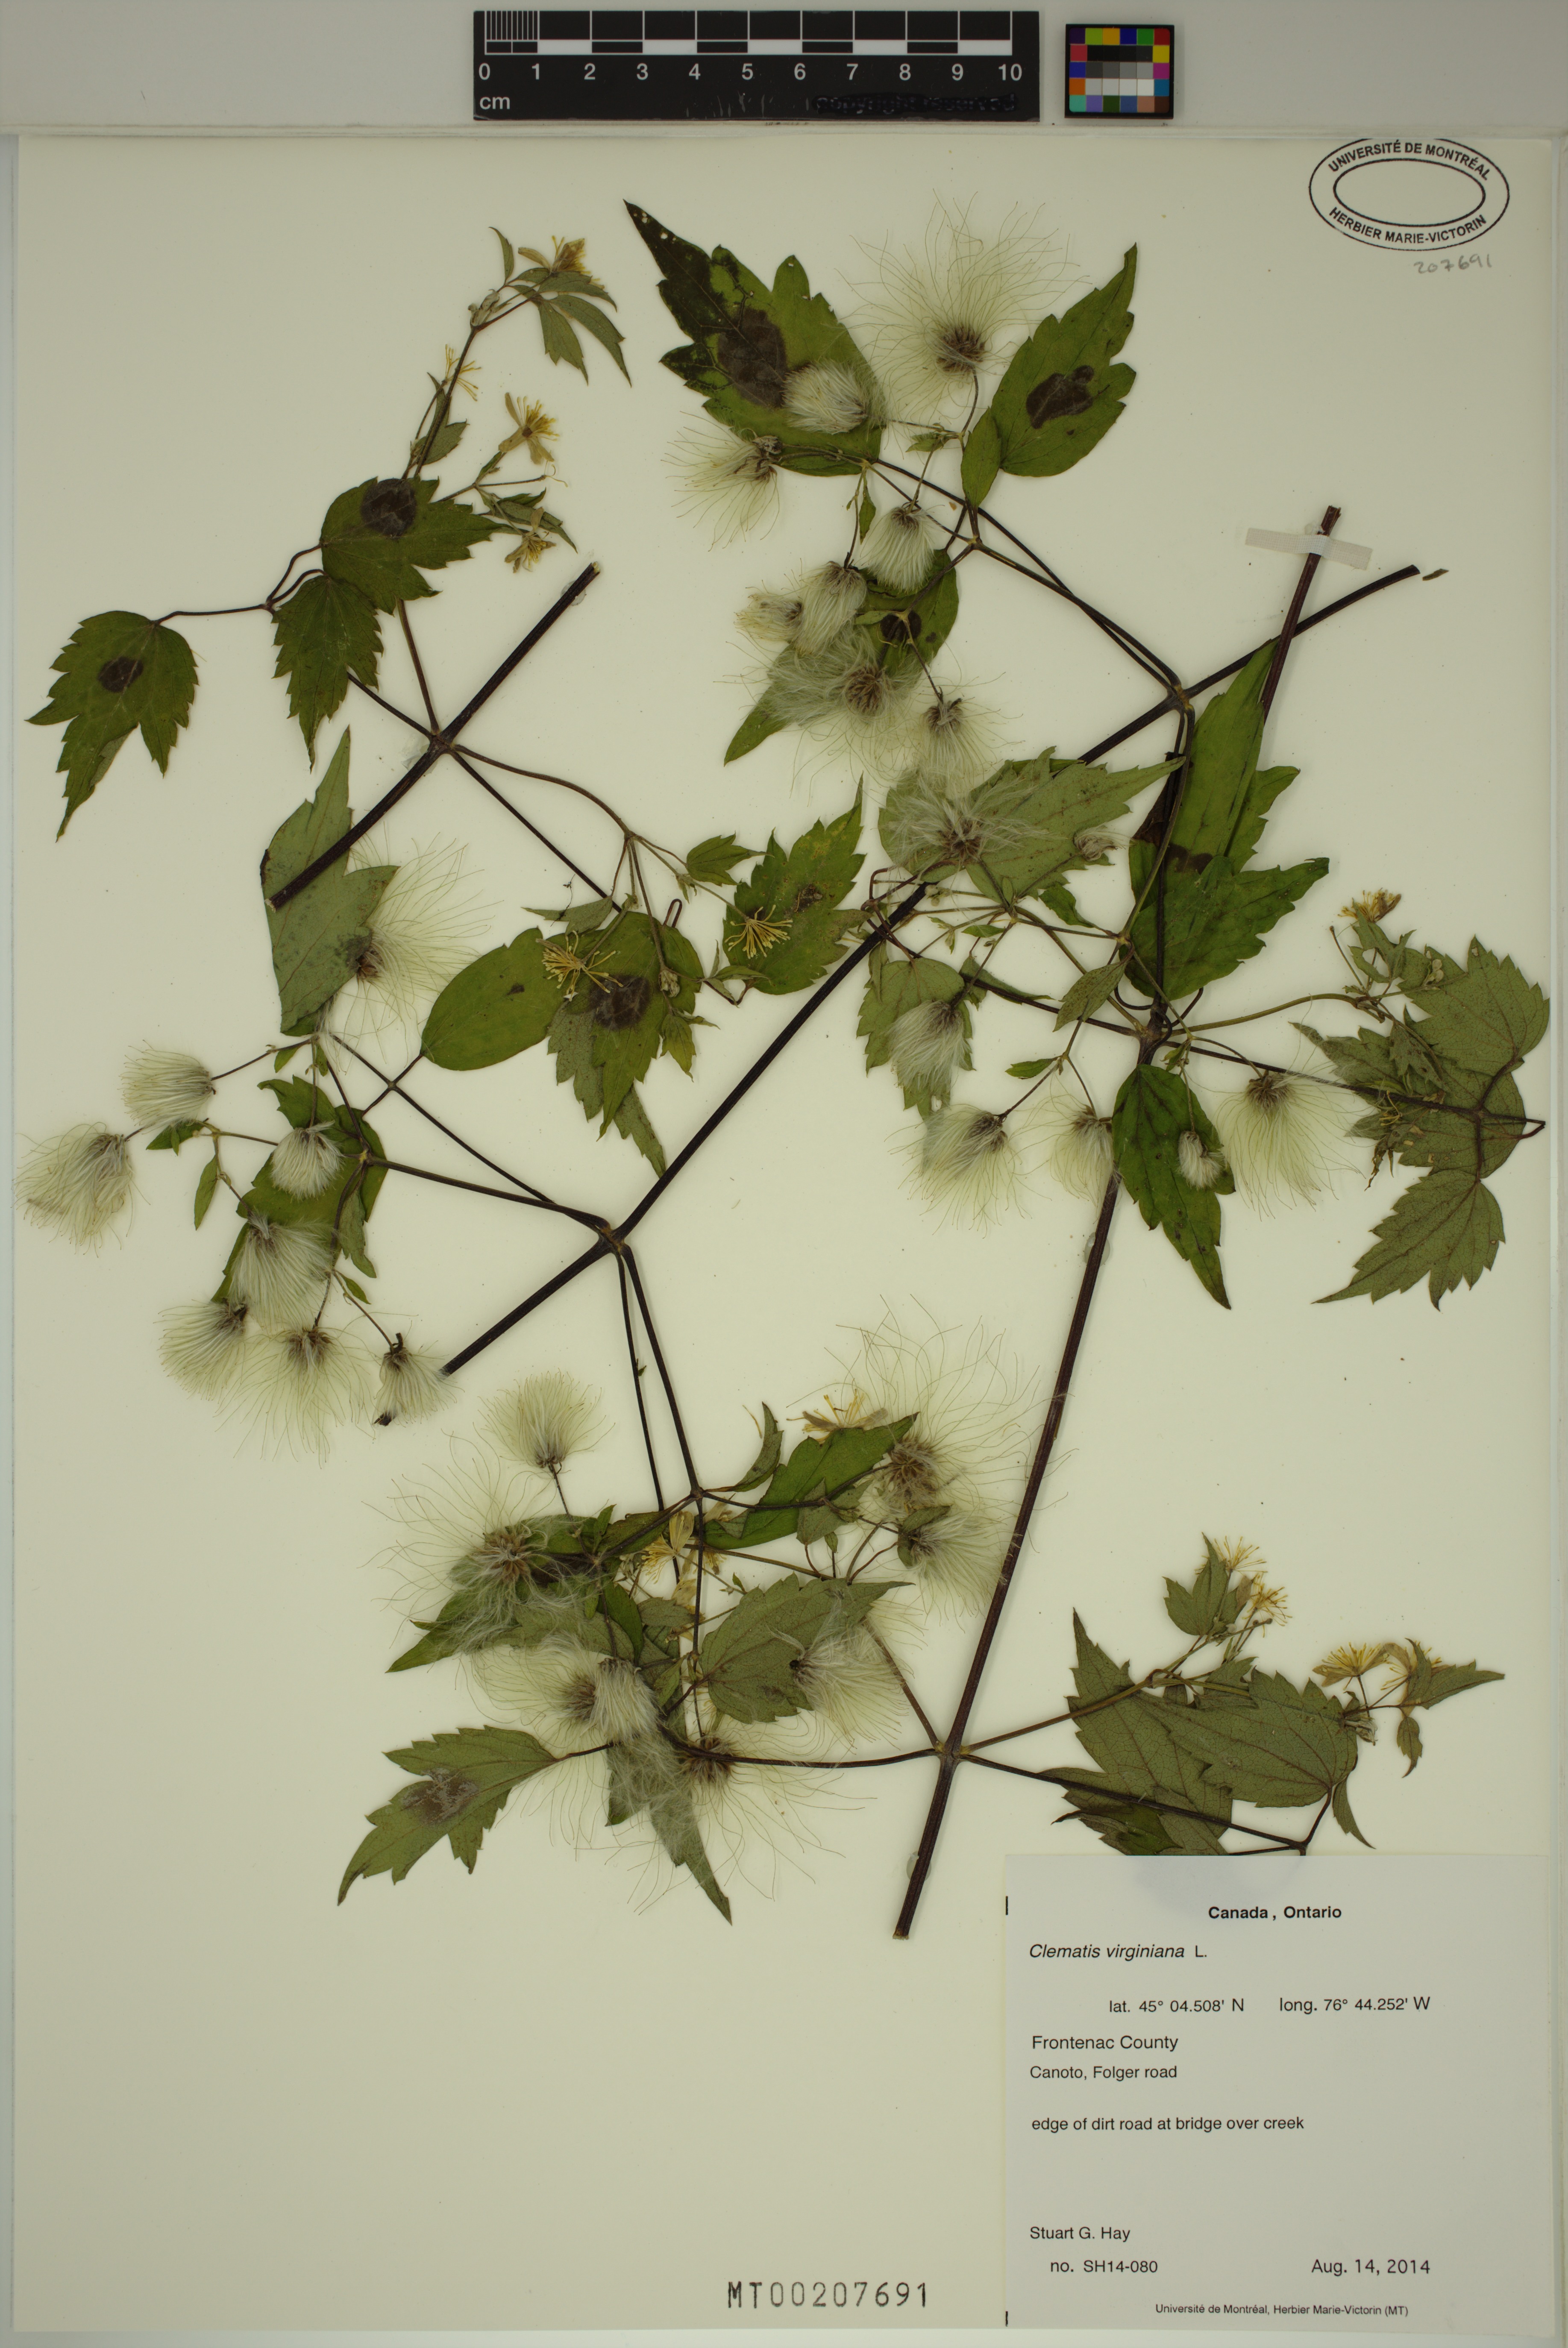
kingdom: Plantae
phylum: Tracheophyta
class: Magnoliopsida
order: Ranunculales
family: Ranunculaceae
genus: Clematis
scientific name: Clematis virginiana
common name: Virgin's-bower
